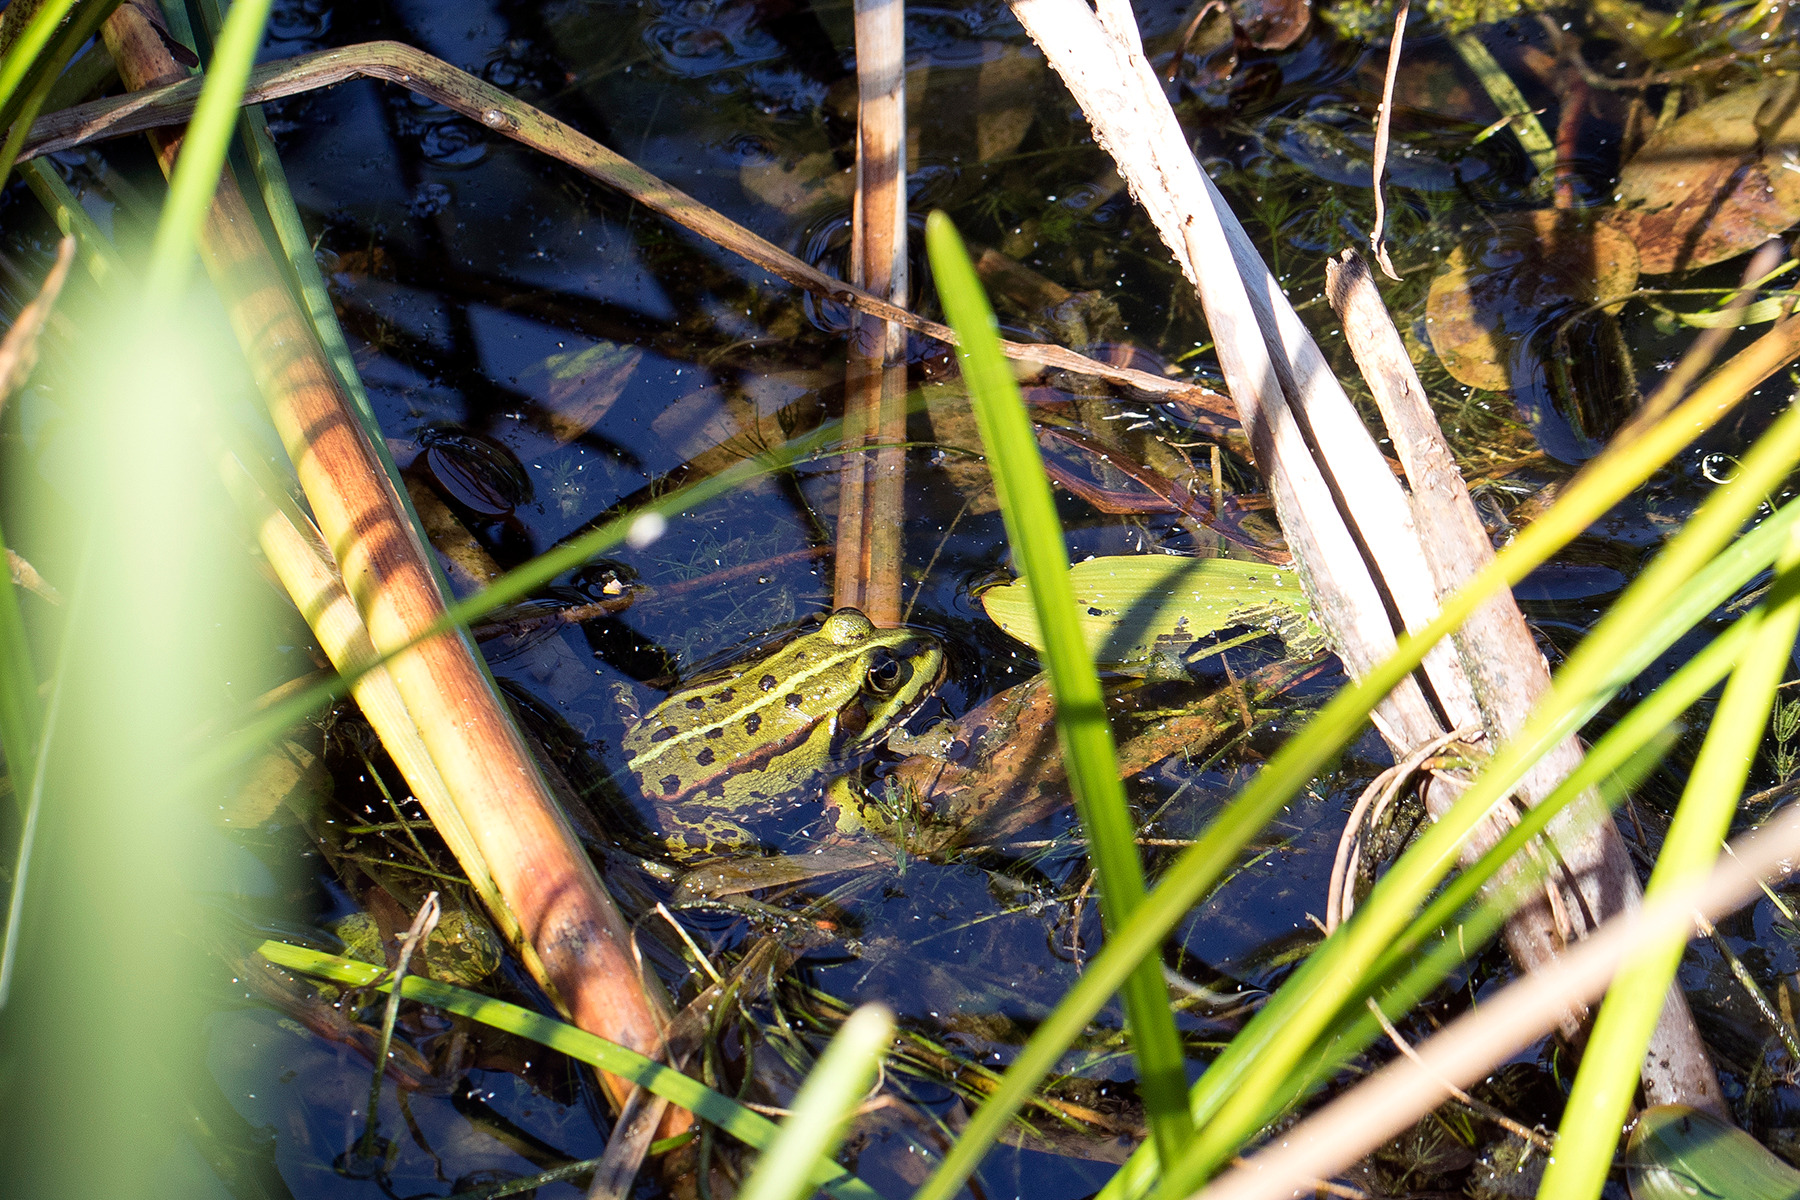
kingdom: Animalia
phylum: Chordata
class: Amphibia
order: Anura
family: Ranidae
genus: Pelophylax
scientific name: Pelophylax lessonae
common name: Grøn frø
